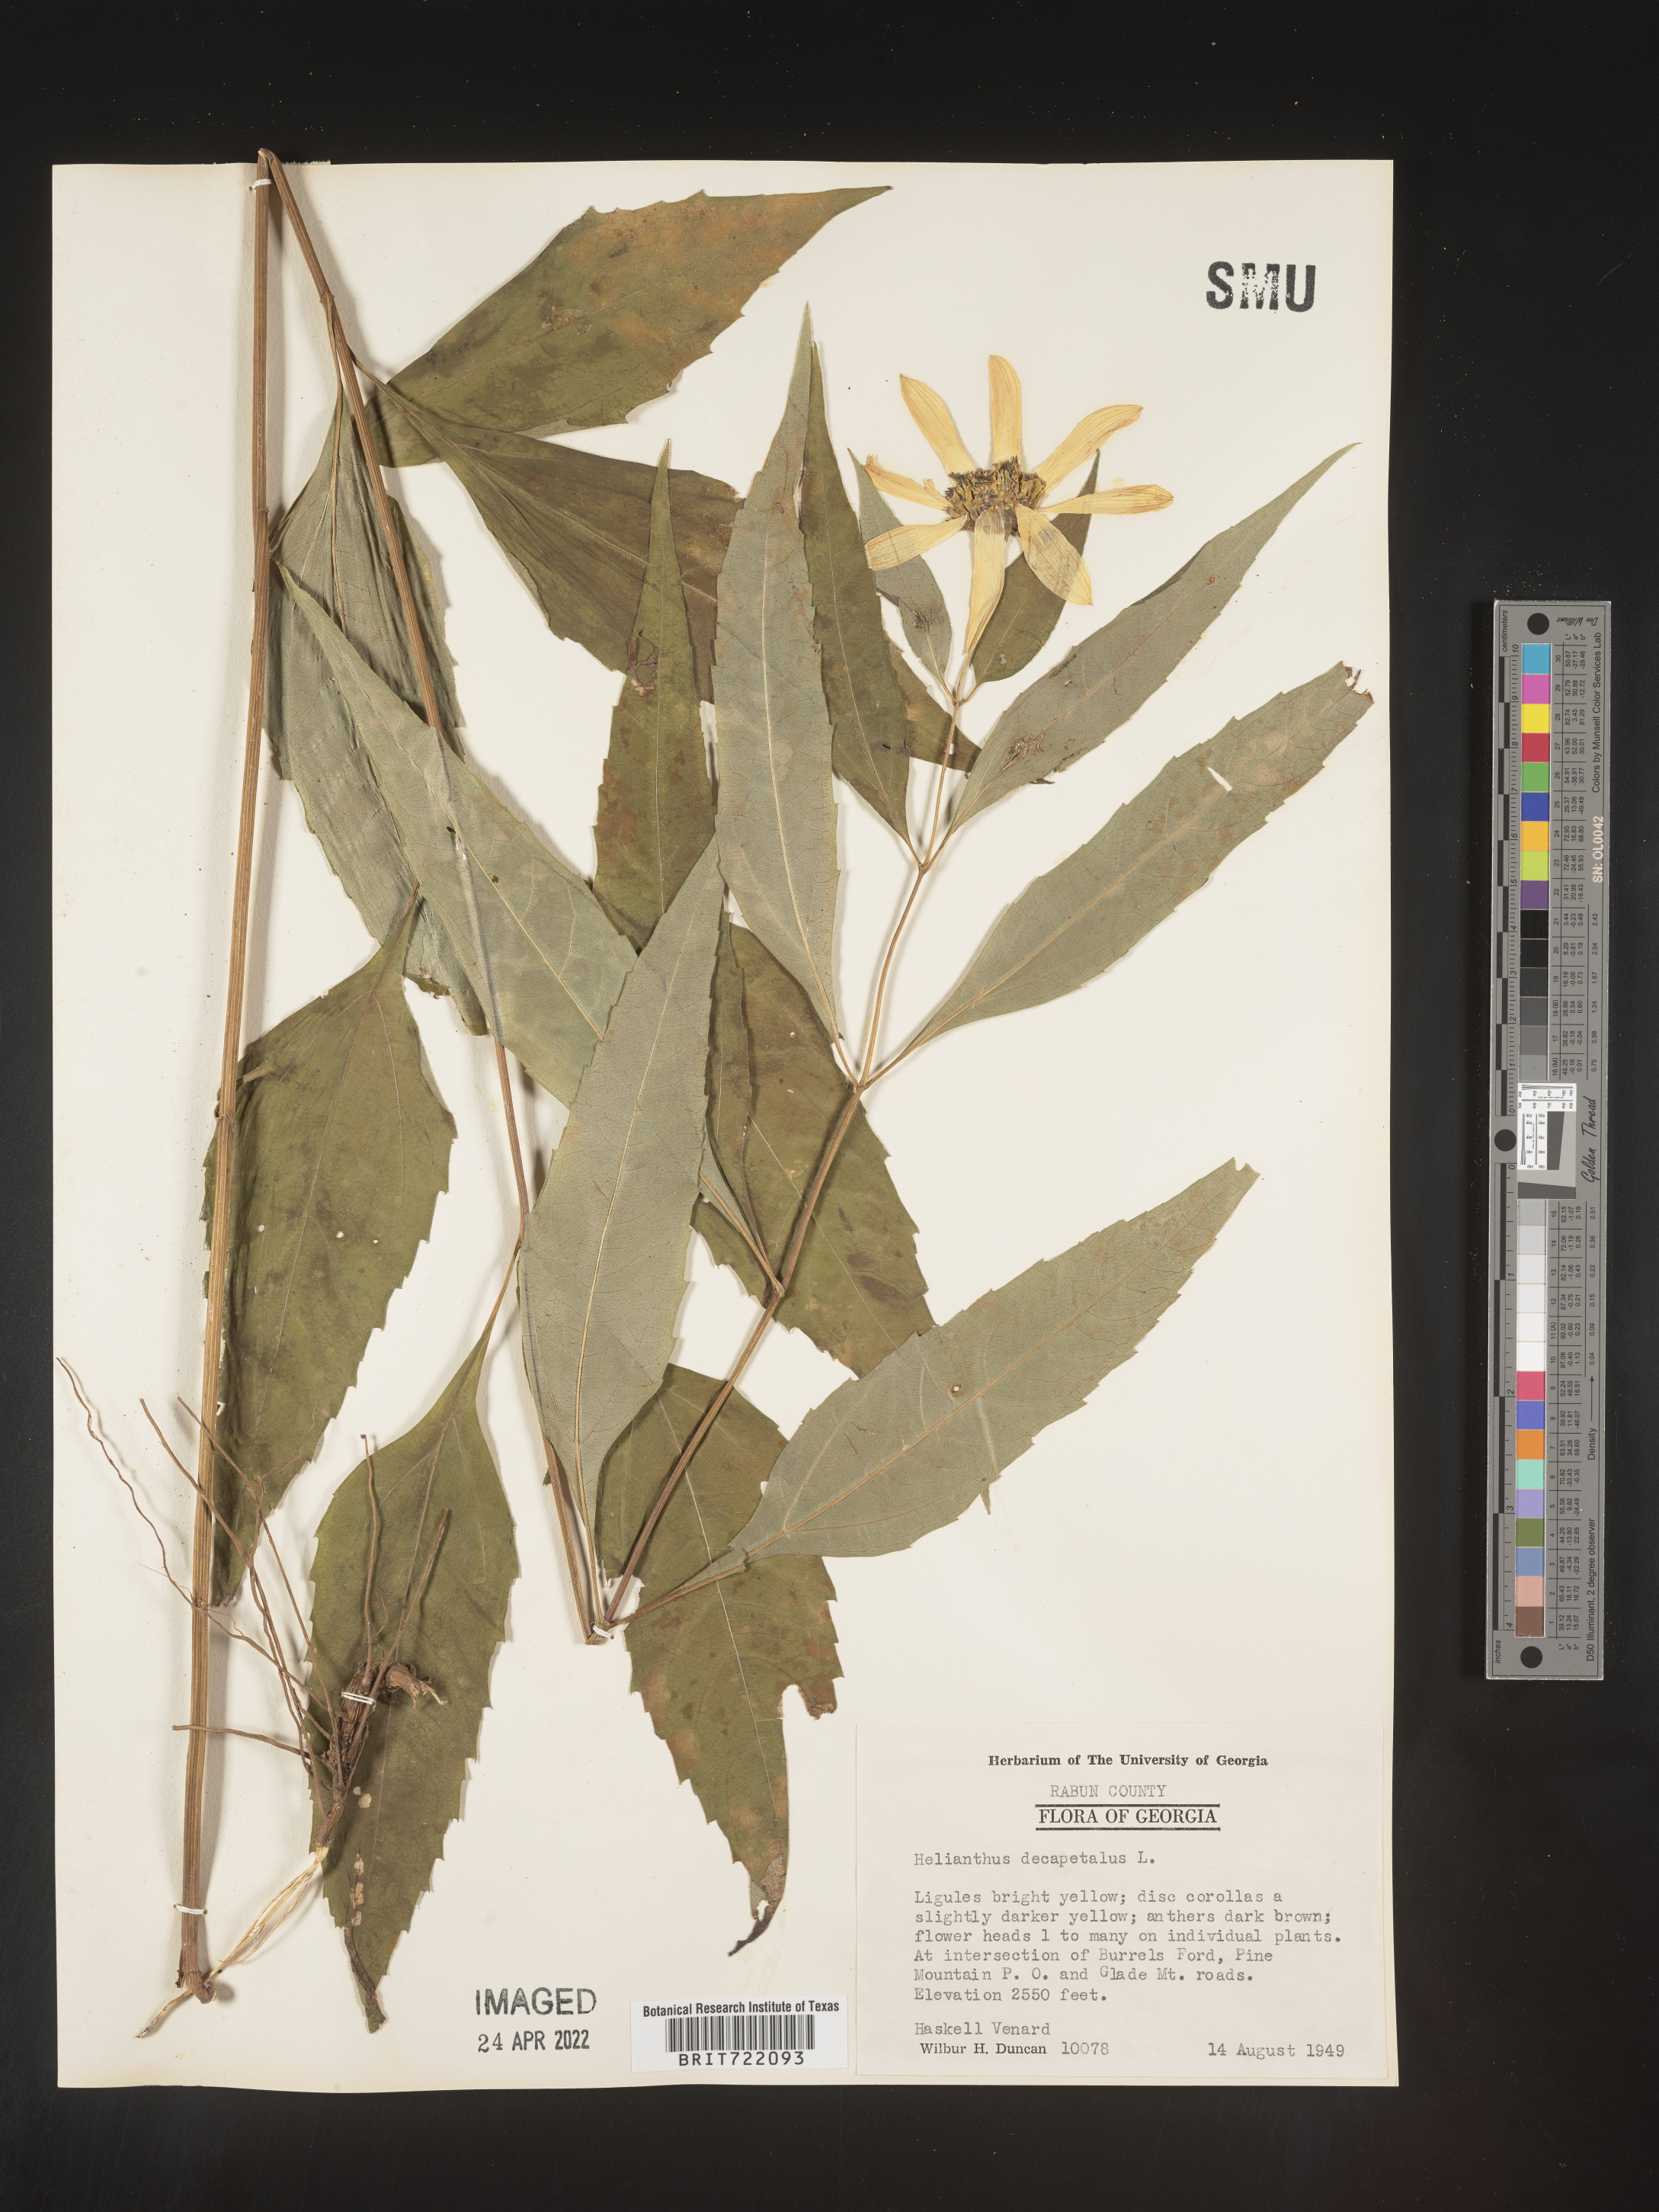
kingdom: Plantae
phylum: Tracheophyta
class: Magnoliopsida
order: Asterales
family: Asteraceae
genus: Helianthus
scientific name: Helianthus decapetalus
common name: Thin-leaved sunflower
